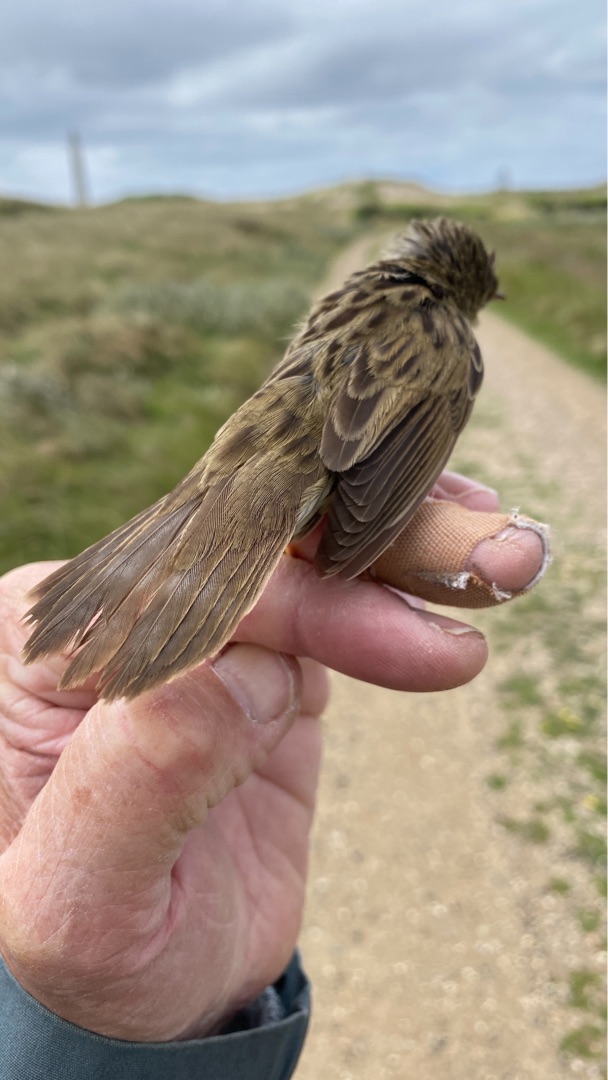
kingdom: Animalia
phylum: Chordata
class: Aves
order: Passeriformes
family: Locustellidae
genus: Locustella
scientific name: Locustella naevia
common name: Græshoppesanger
